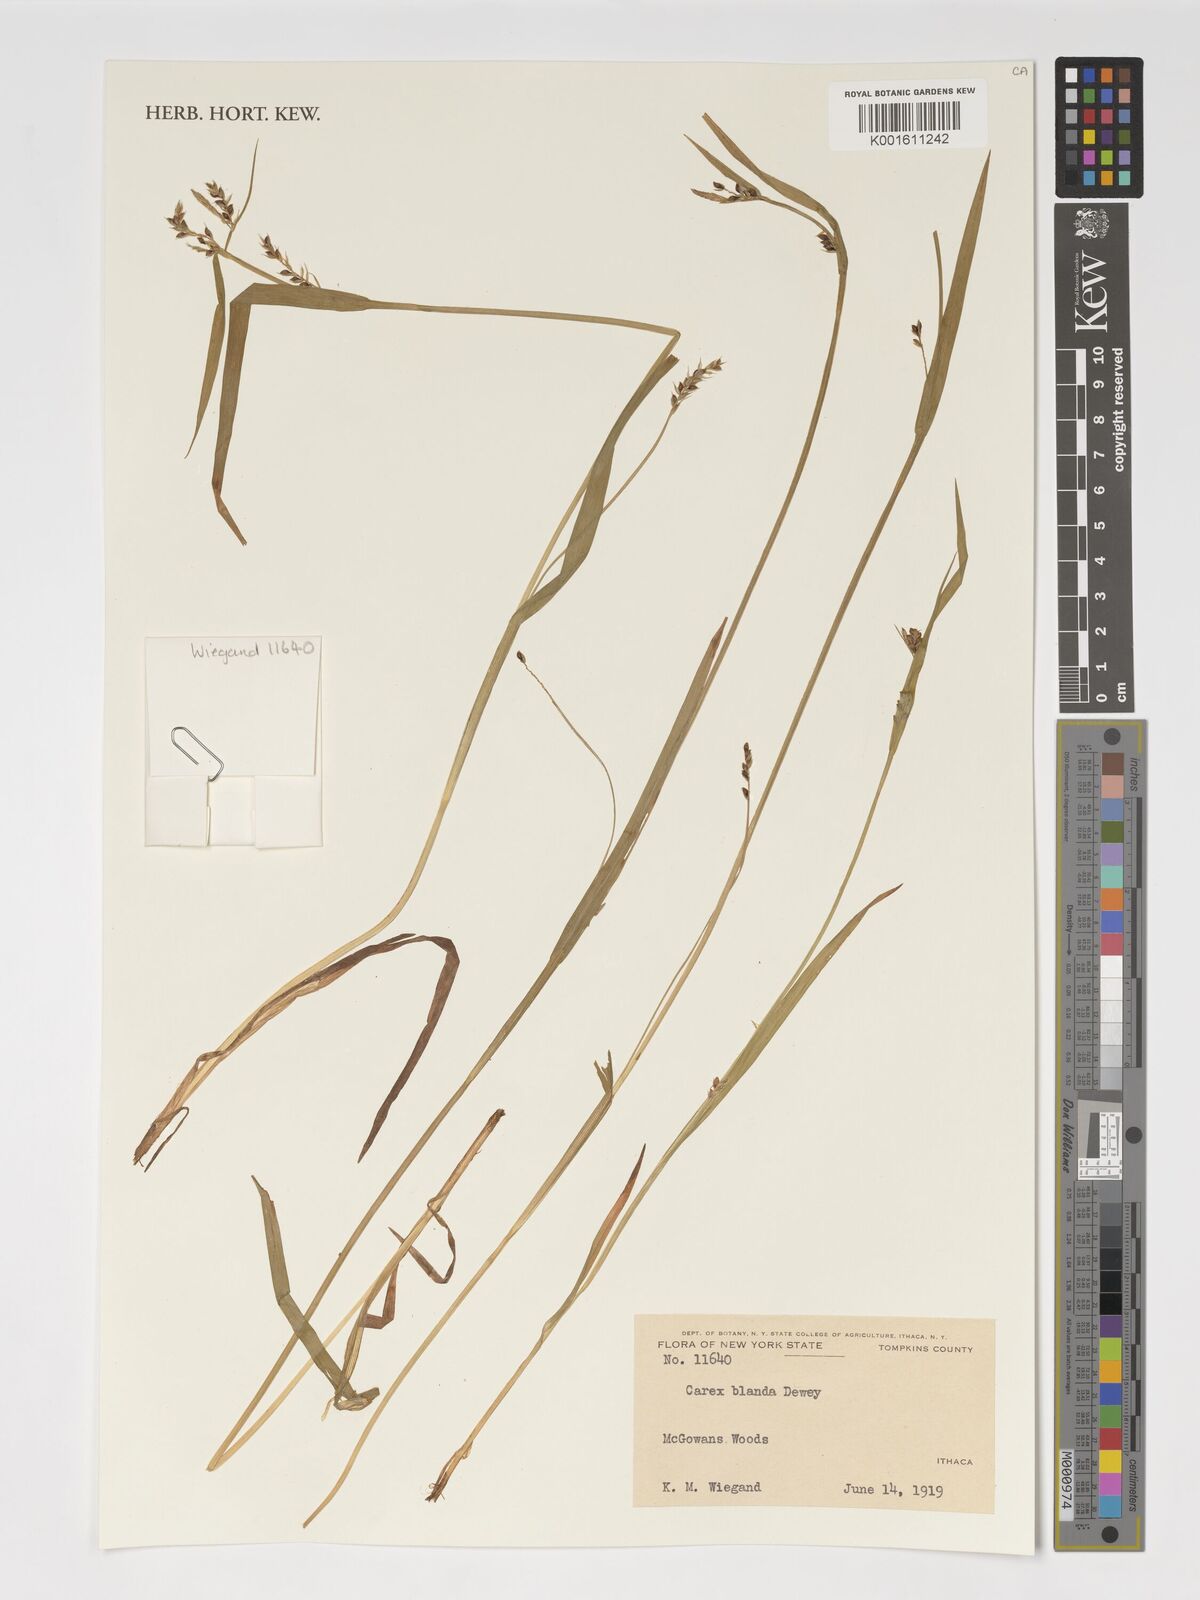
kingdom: Plantae
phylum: Tracheophyta
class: Liliopsida
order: Poales
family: Cyperaceae
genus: Carex
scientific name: Carex blanda
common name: Bland sedge
